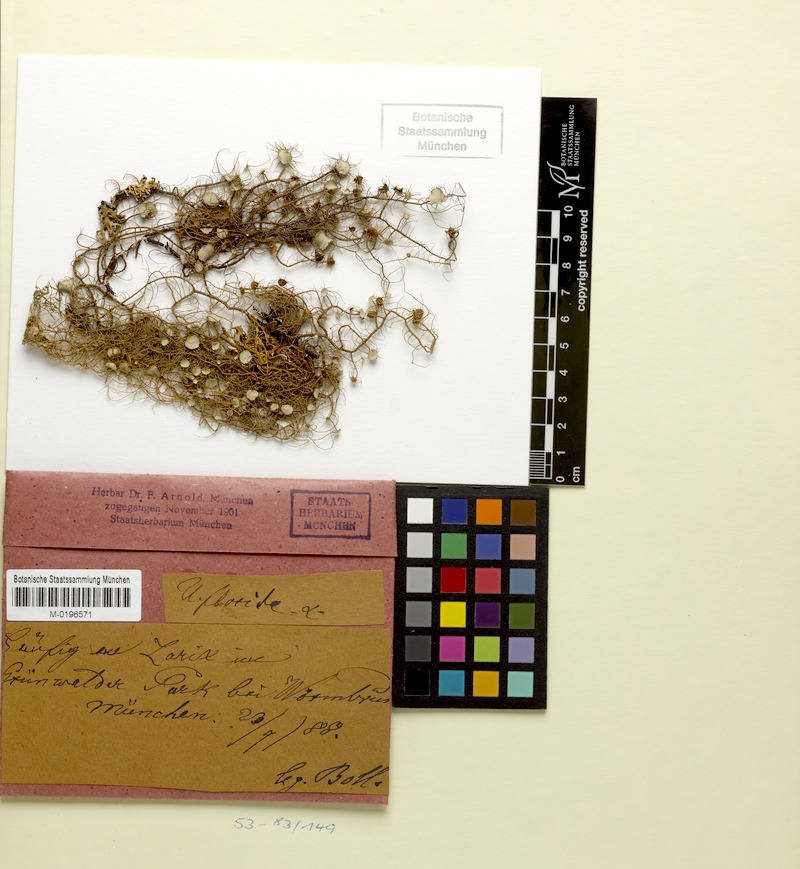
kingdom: Fungi
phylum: Ascomycota
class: Lecanoromycetes
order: Lecanorales
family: Parmeliaceae
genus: Usnea
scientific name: Usnea florida
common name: Witches' whiskers lichen
